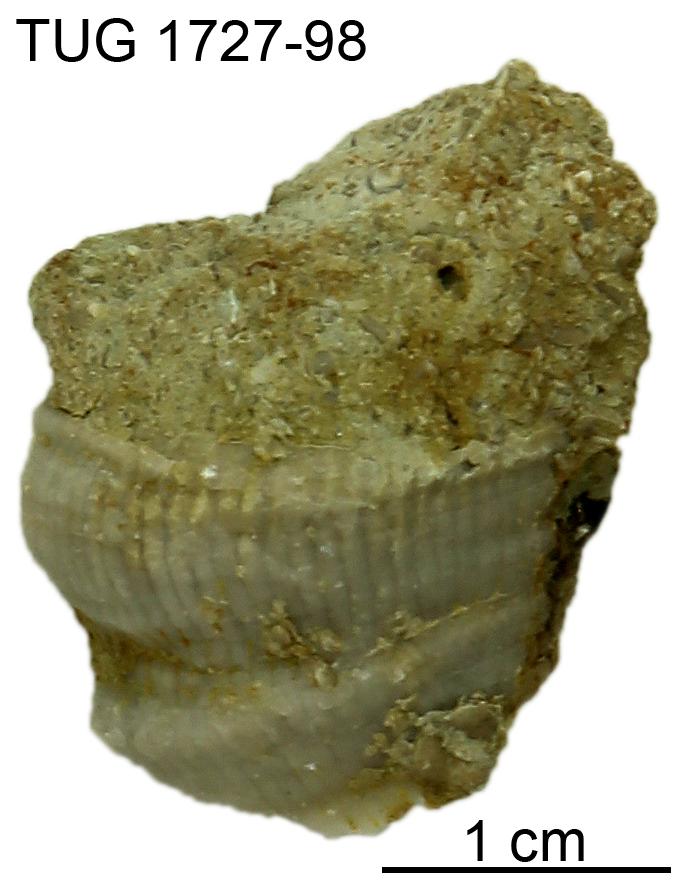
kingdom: Animalia
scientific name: Animalia
